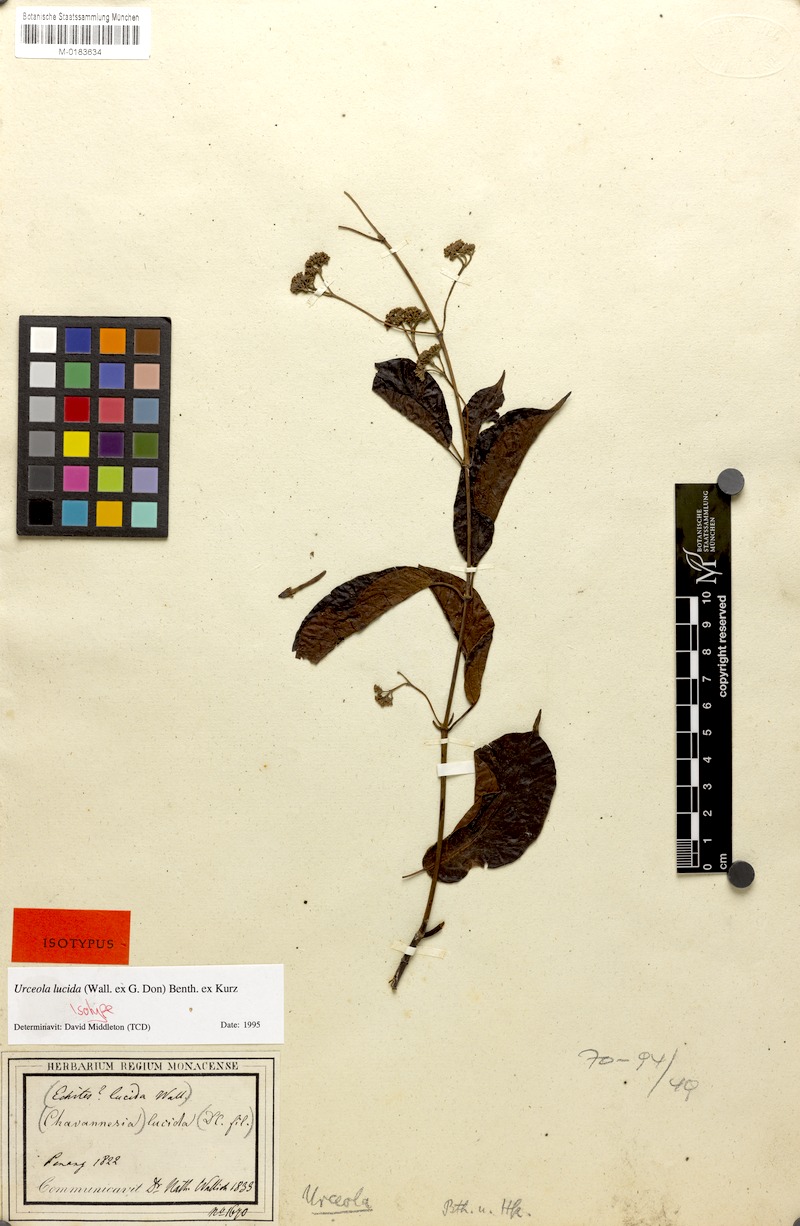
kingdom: Plantae
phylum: Tracheophyta
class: Magnoliopsida
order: Gentianales
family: Apocynaceae
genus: Urceola
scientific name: Urceola lucida
